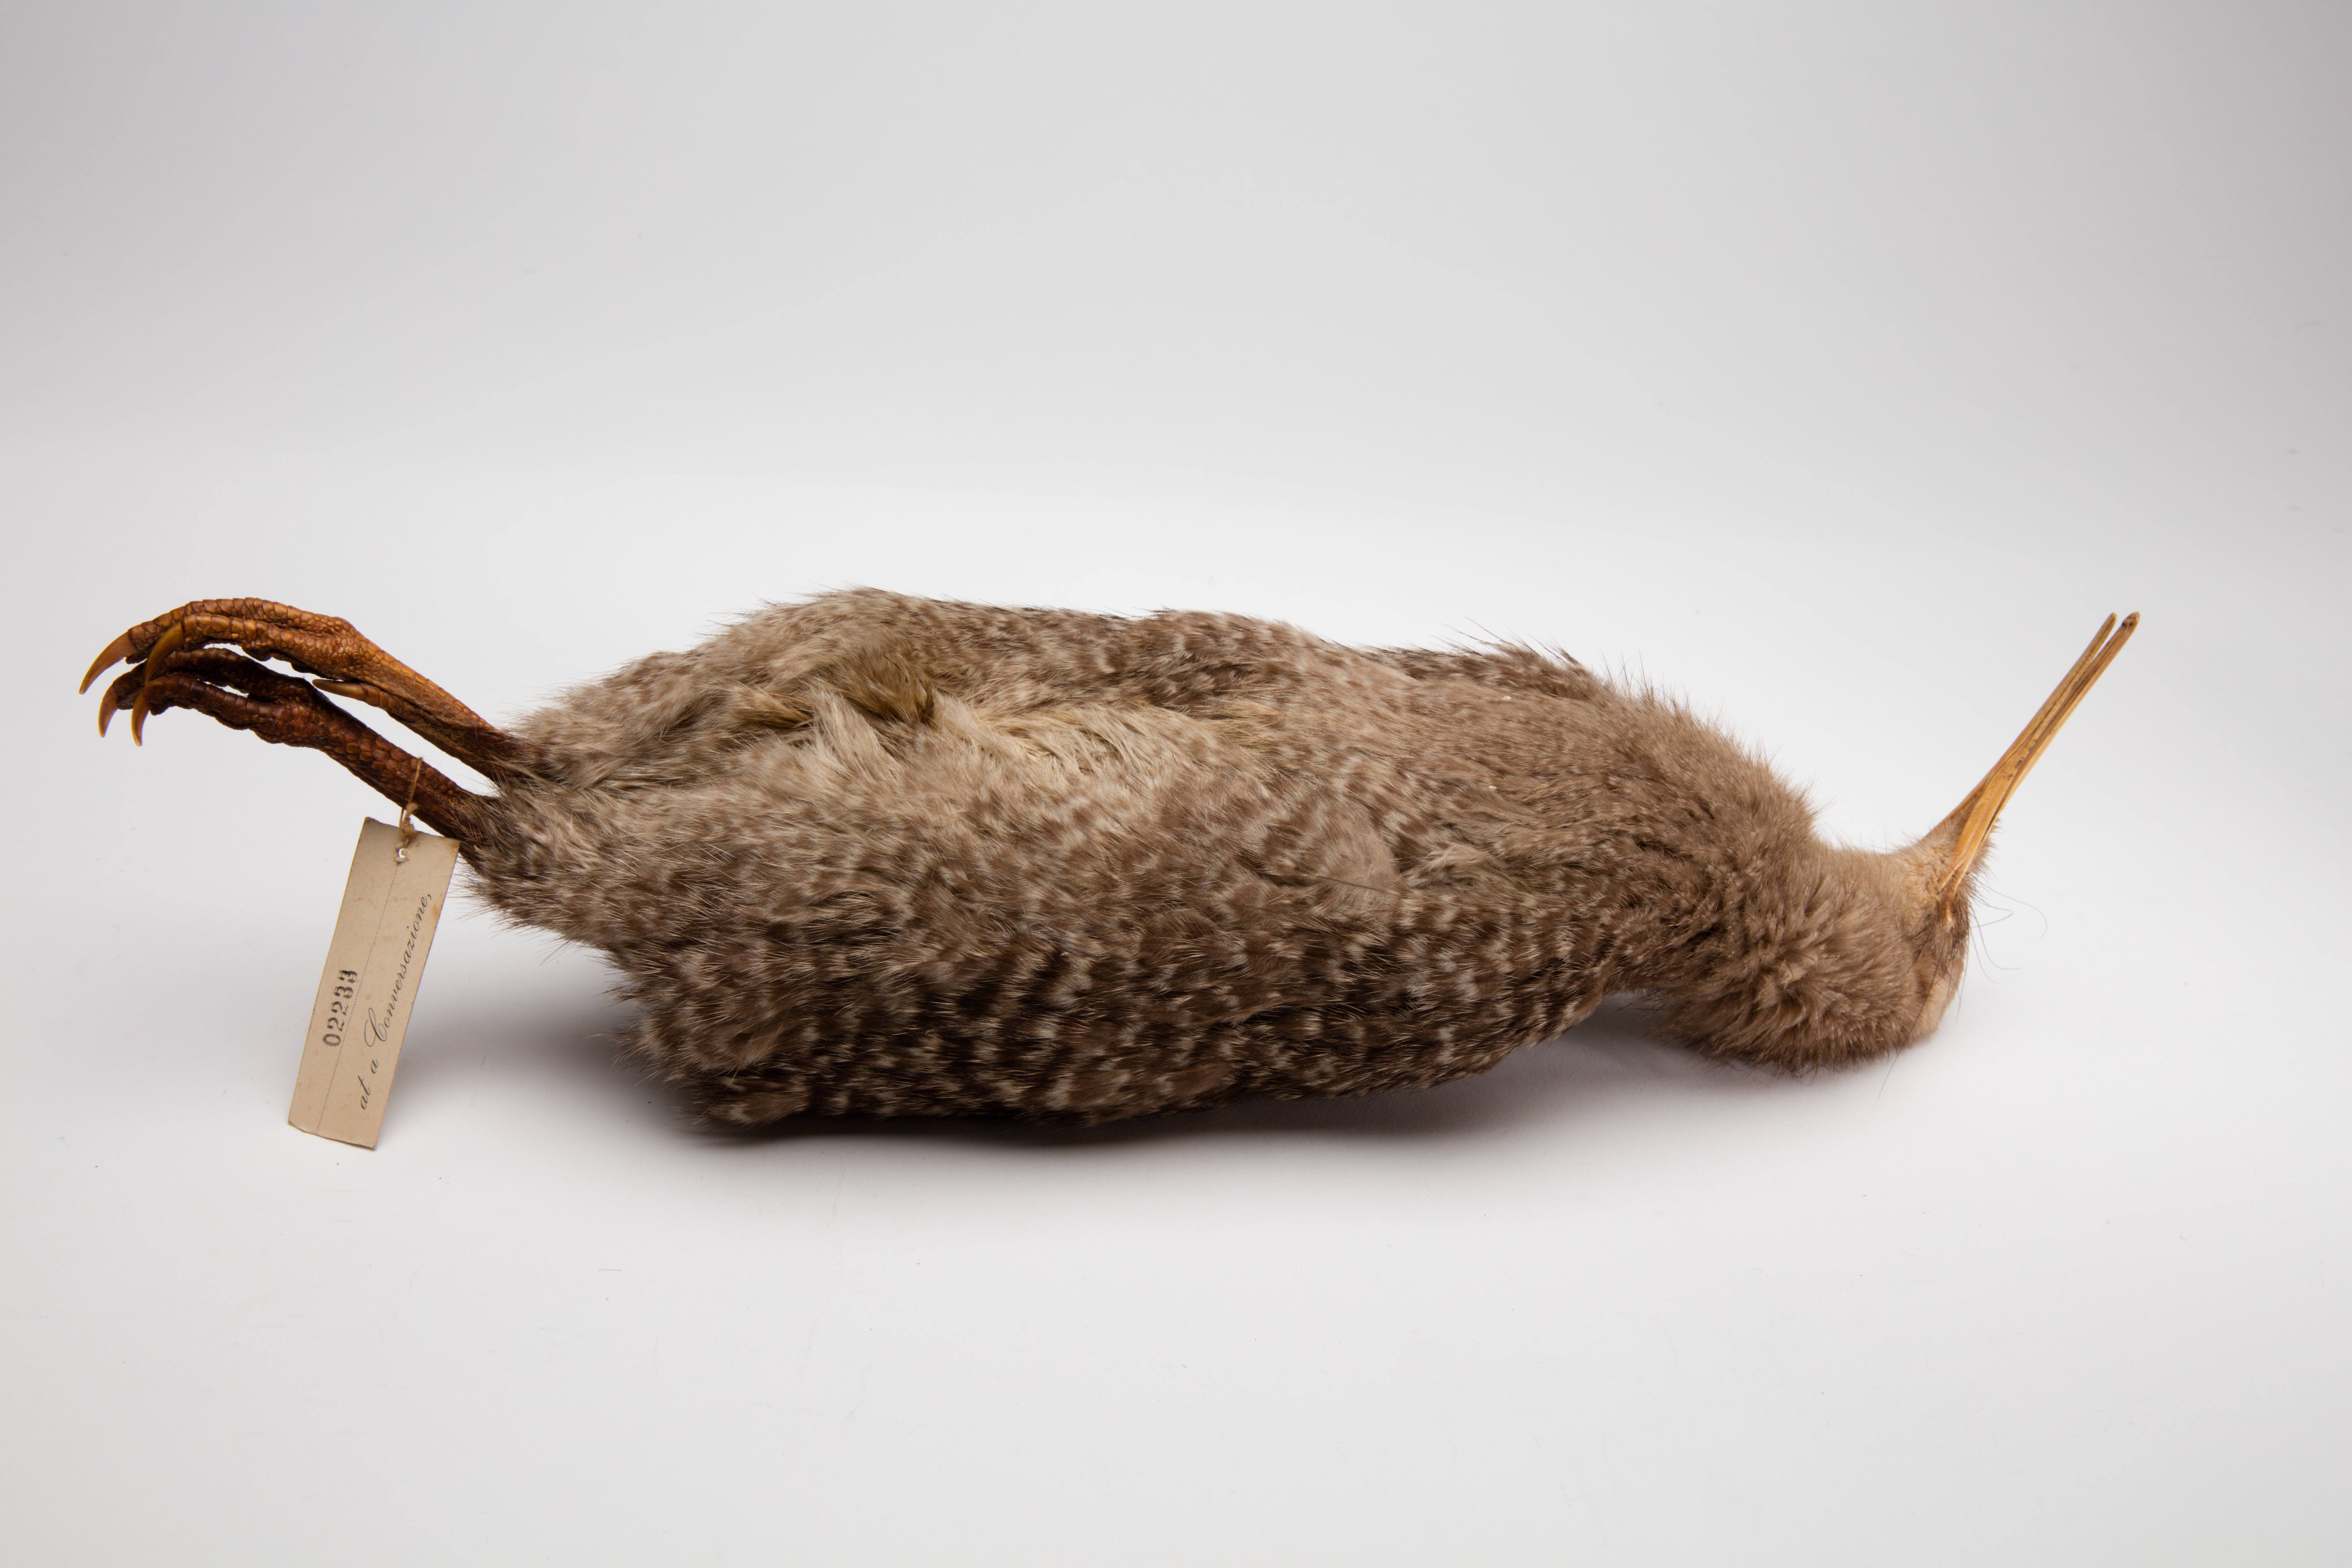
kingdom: Animalia
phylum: Chordata
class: Aves
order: Apterygiformes
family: Apterygidae
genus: Apteryx
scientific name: Apteryx owenii
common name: Little spotted kiwi
